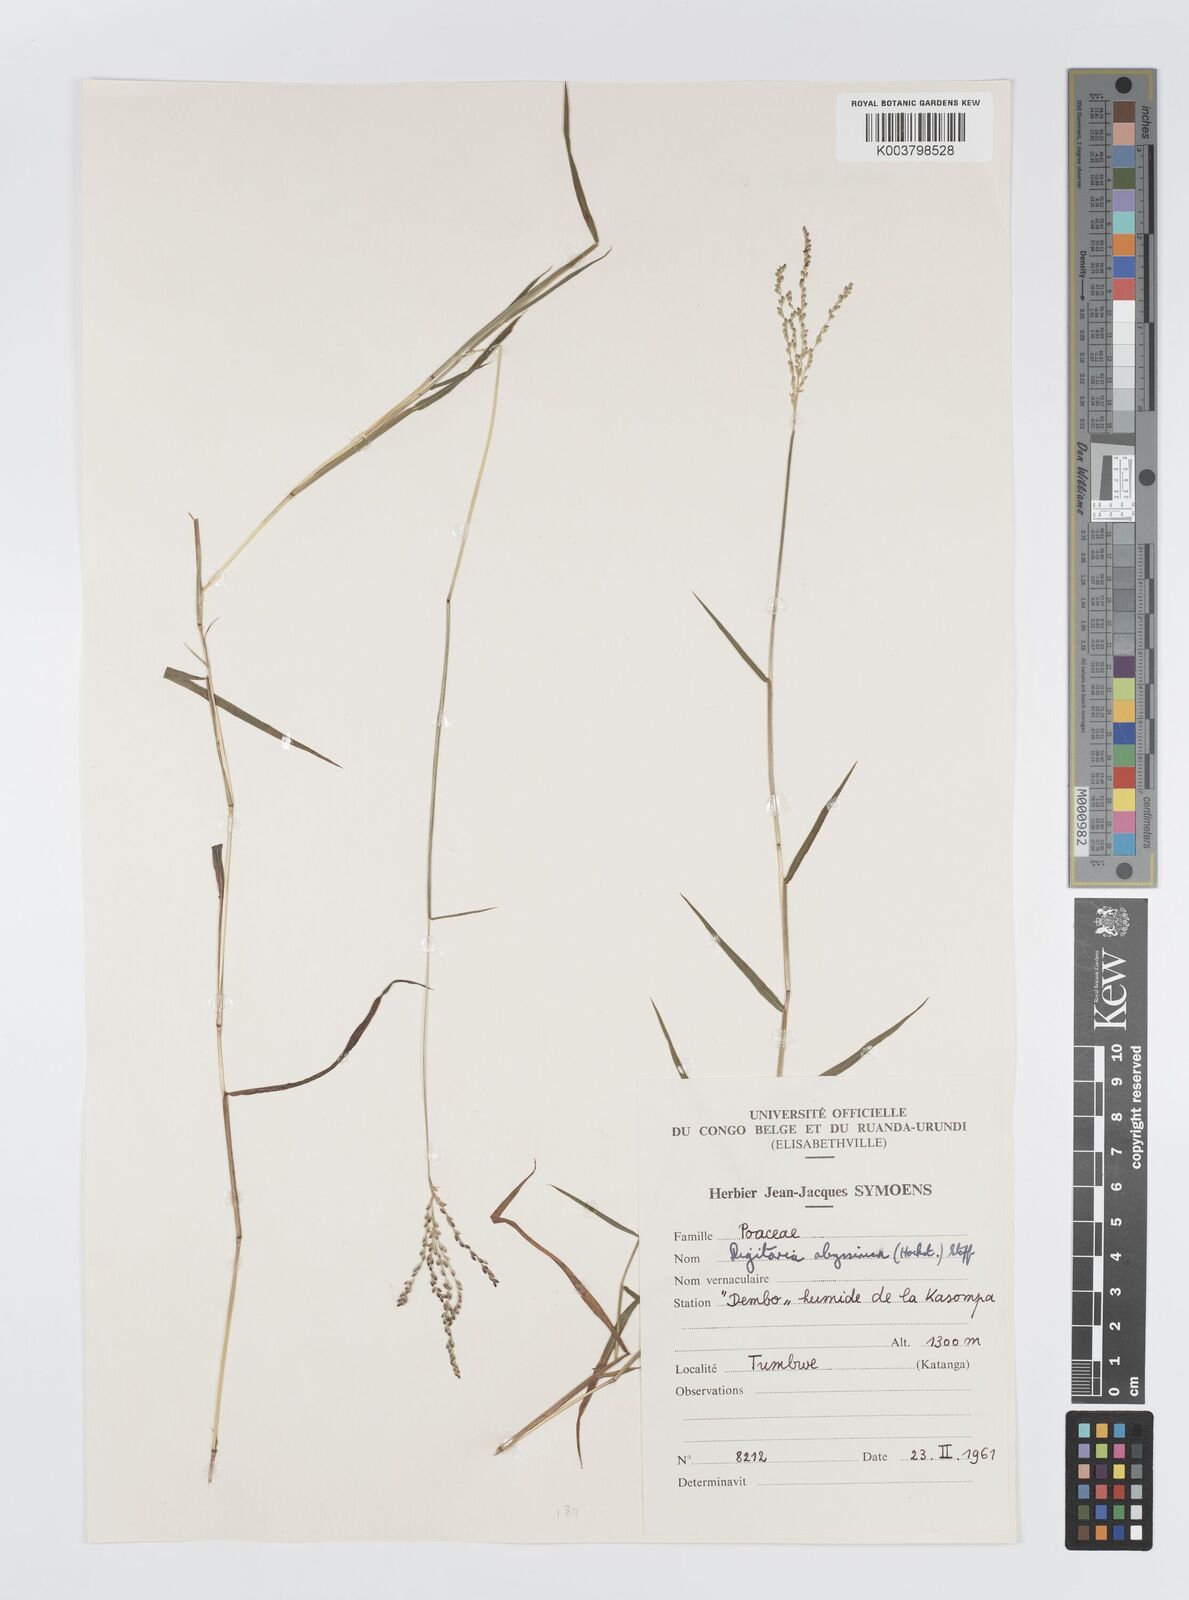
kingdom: Plantae
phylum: Tracheophyta
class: Liliopsida
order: Poales
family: Poaceae
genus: Digitaria
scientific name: Digitaria abyssinica
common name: African couchgrass
